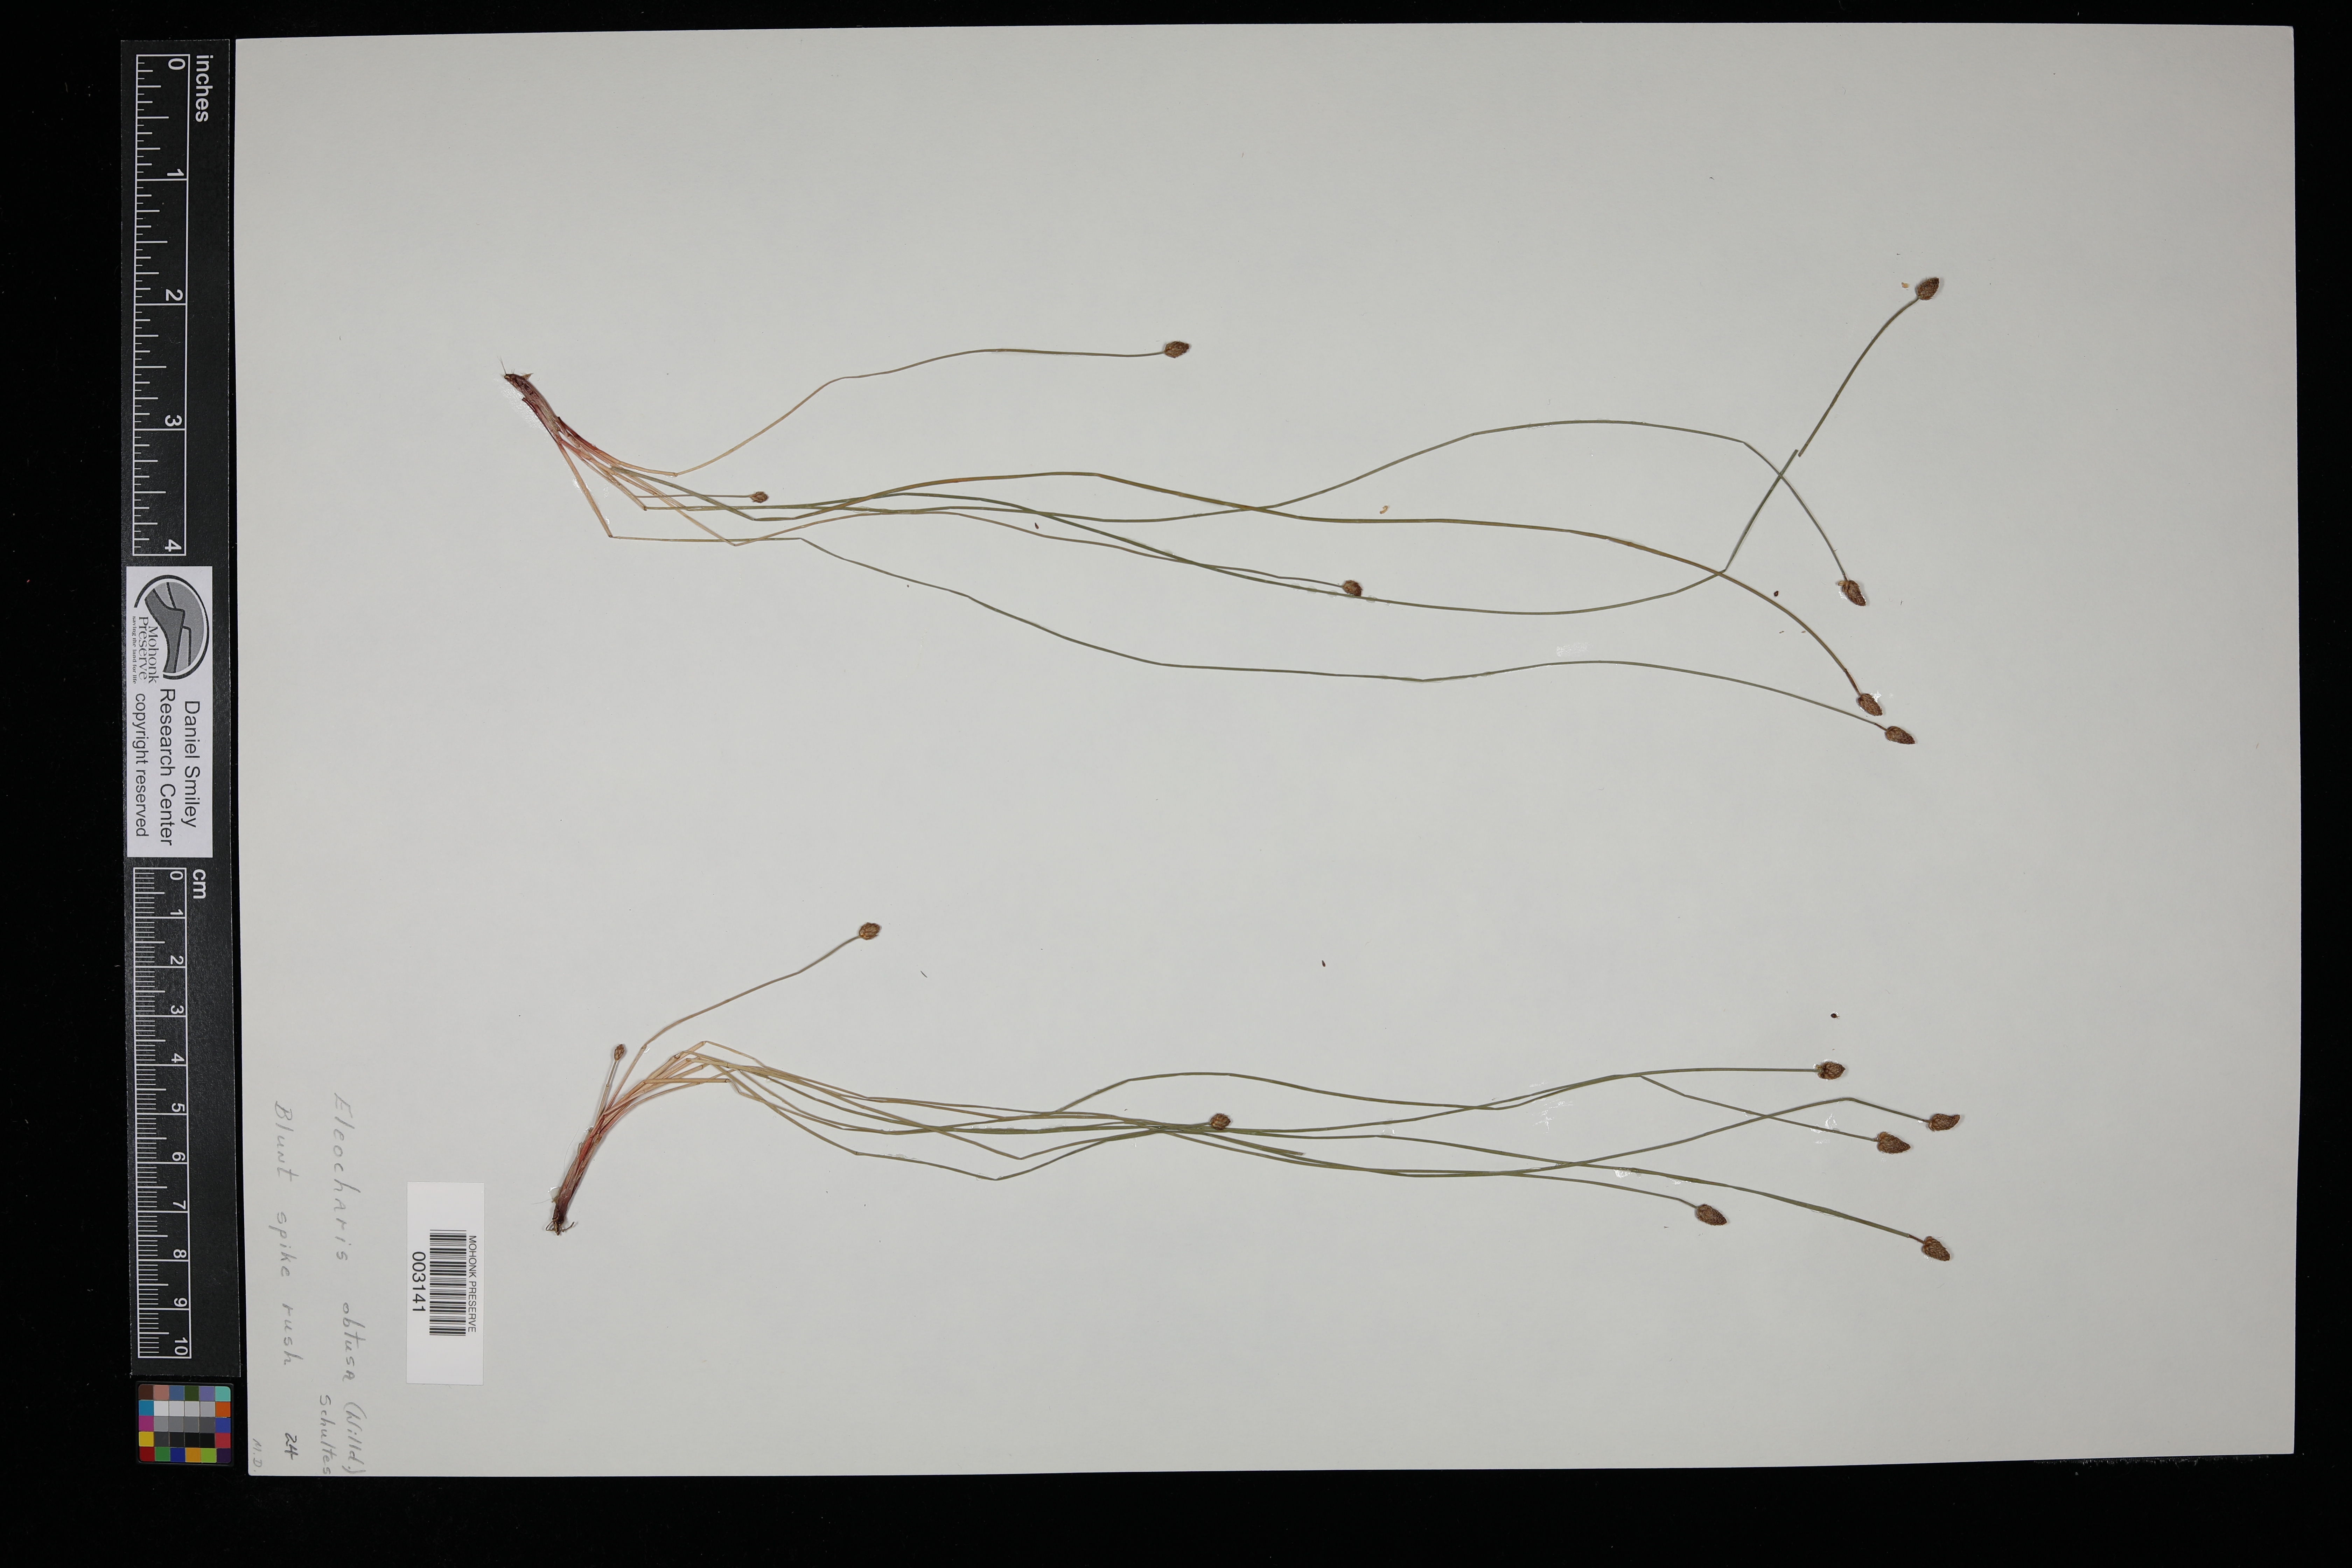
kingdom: Plantae
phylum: Tracheophyta
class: Liliopsida
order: Poales
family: Cyperaceae
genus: Eleocharis
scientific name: Eleocharis obtusa
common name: Blunt spikerush
